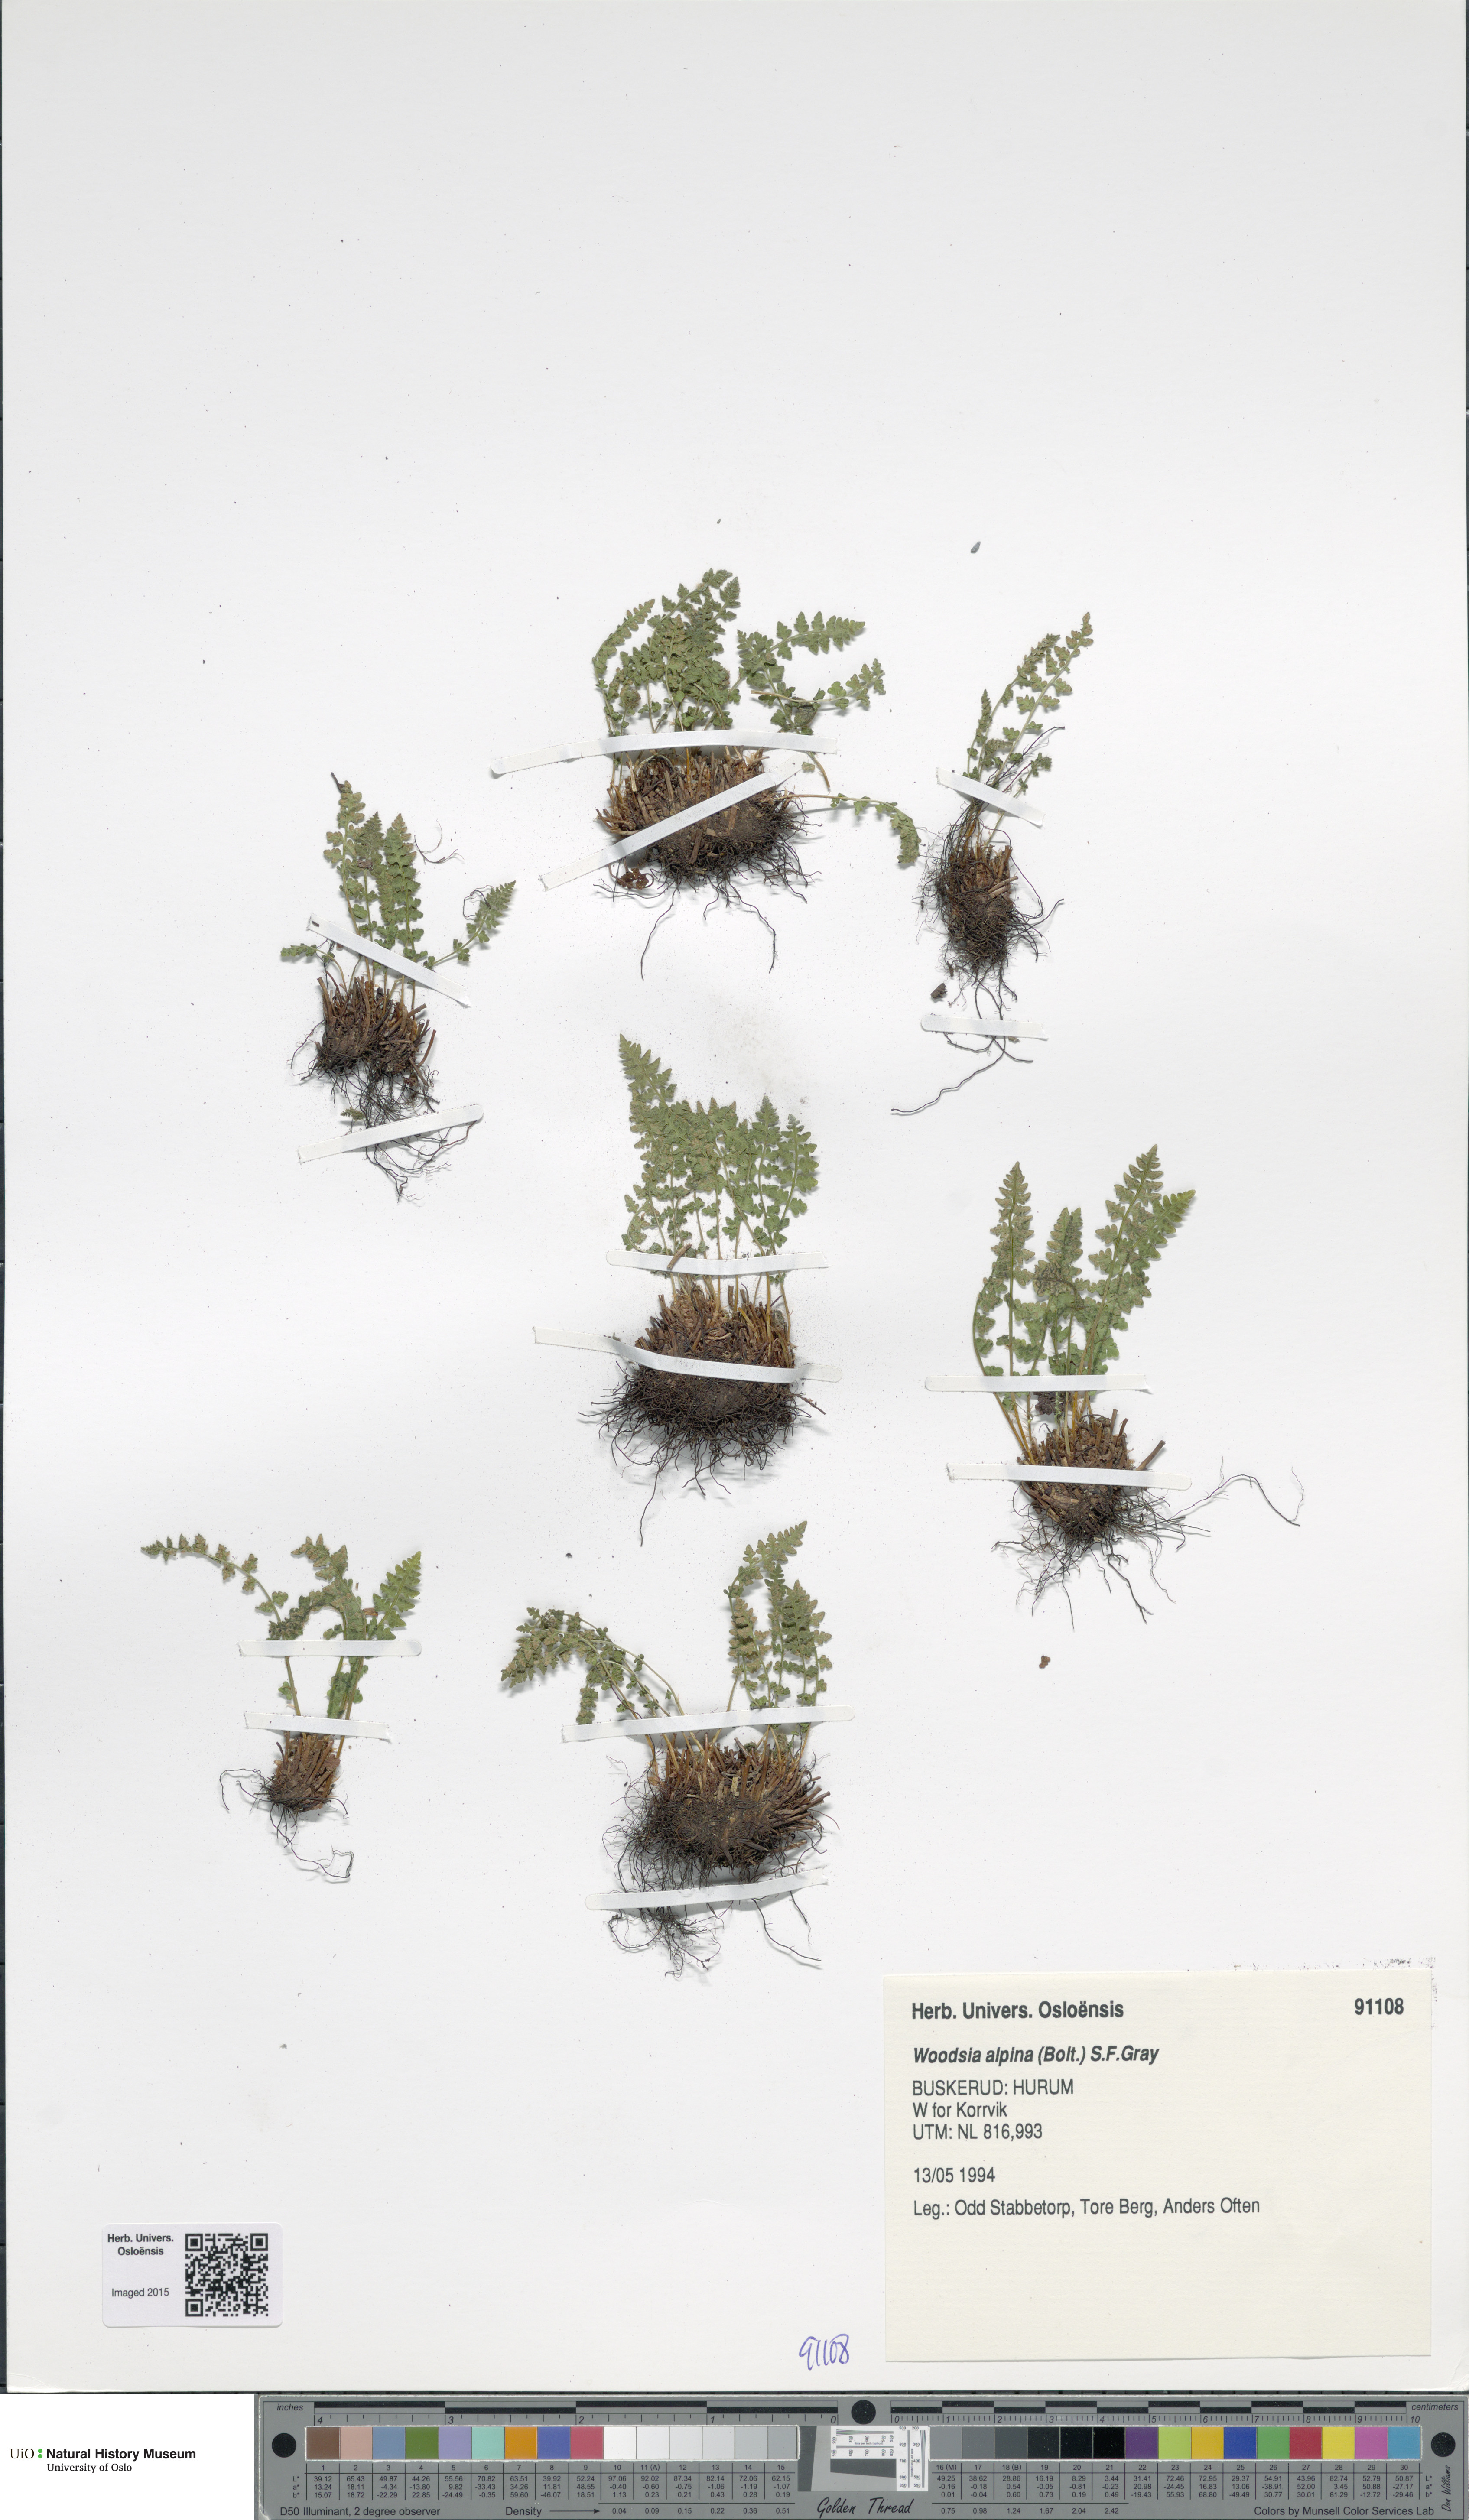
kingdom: Plantae
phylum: Tracheophyta
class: Polypodiopsida
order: Polypodiales
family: Woodsiaceae
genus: Woodsia
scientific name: Woodsia alpina
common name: Alpine woodsia
